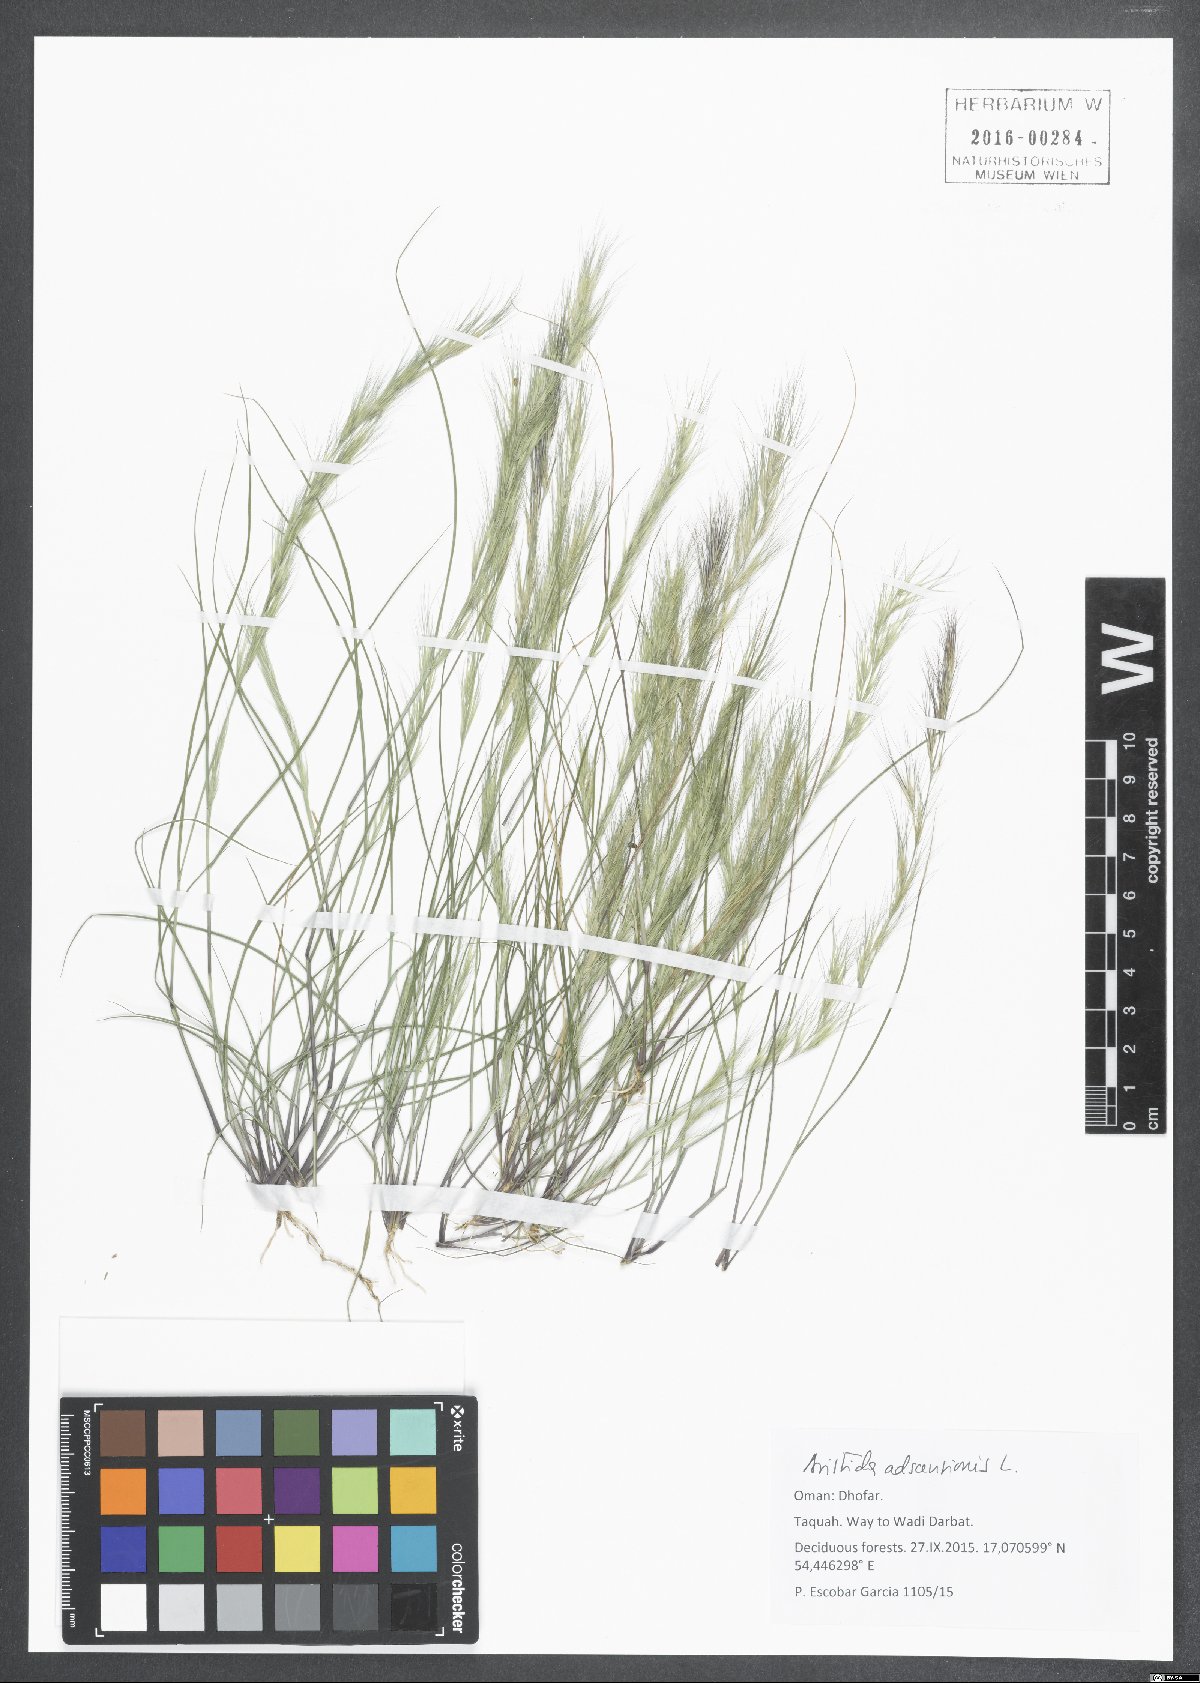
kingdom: Plantae
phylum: Tracheophyta
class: Liliopsida
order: Poales
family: Poaceae
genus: Aristida
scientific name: Aristida adscensionis
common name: Sixweeks threeawn
